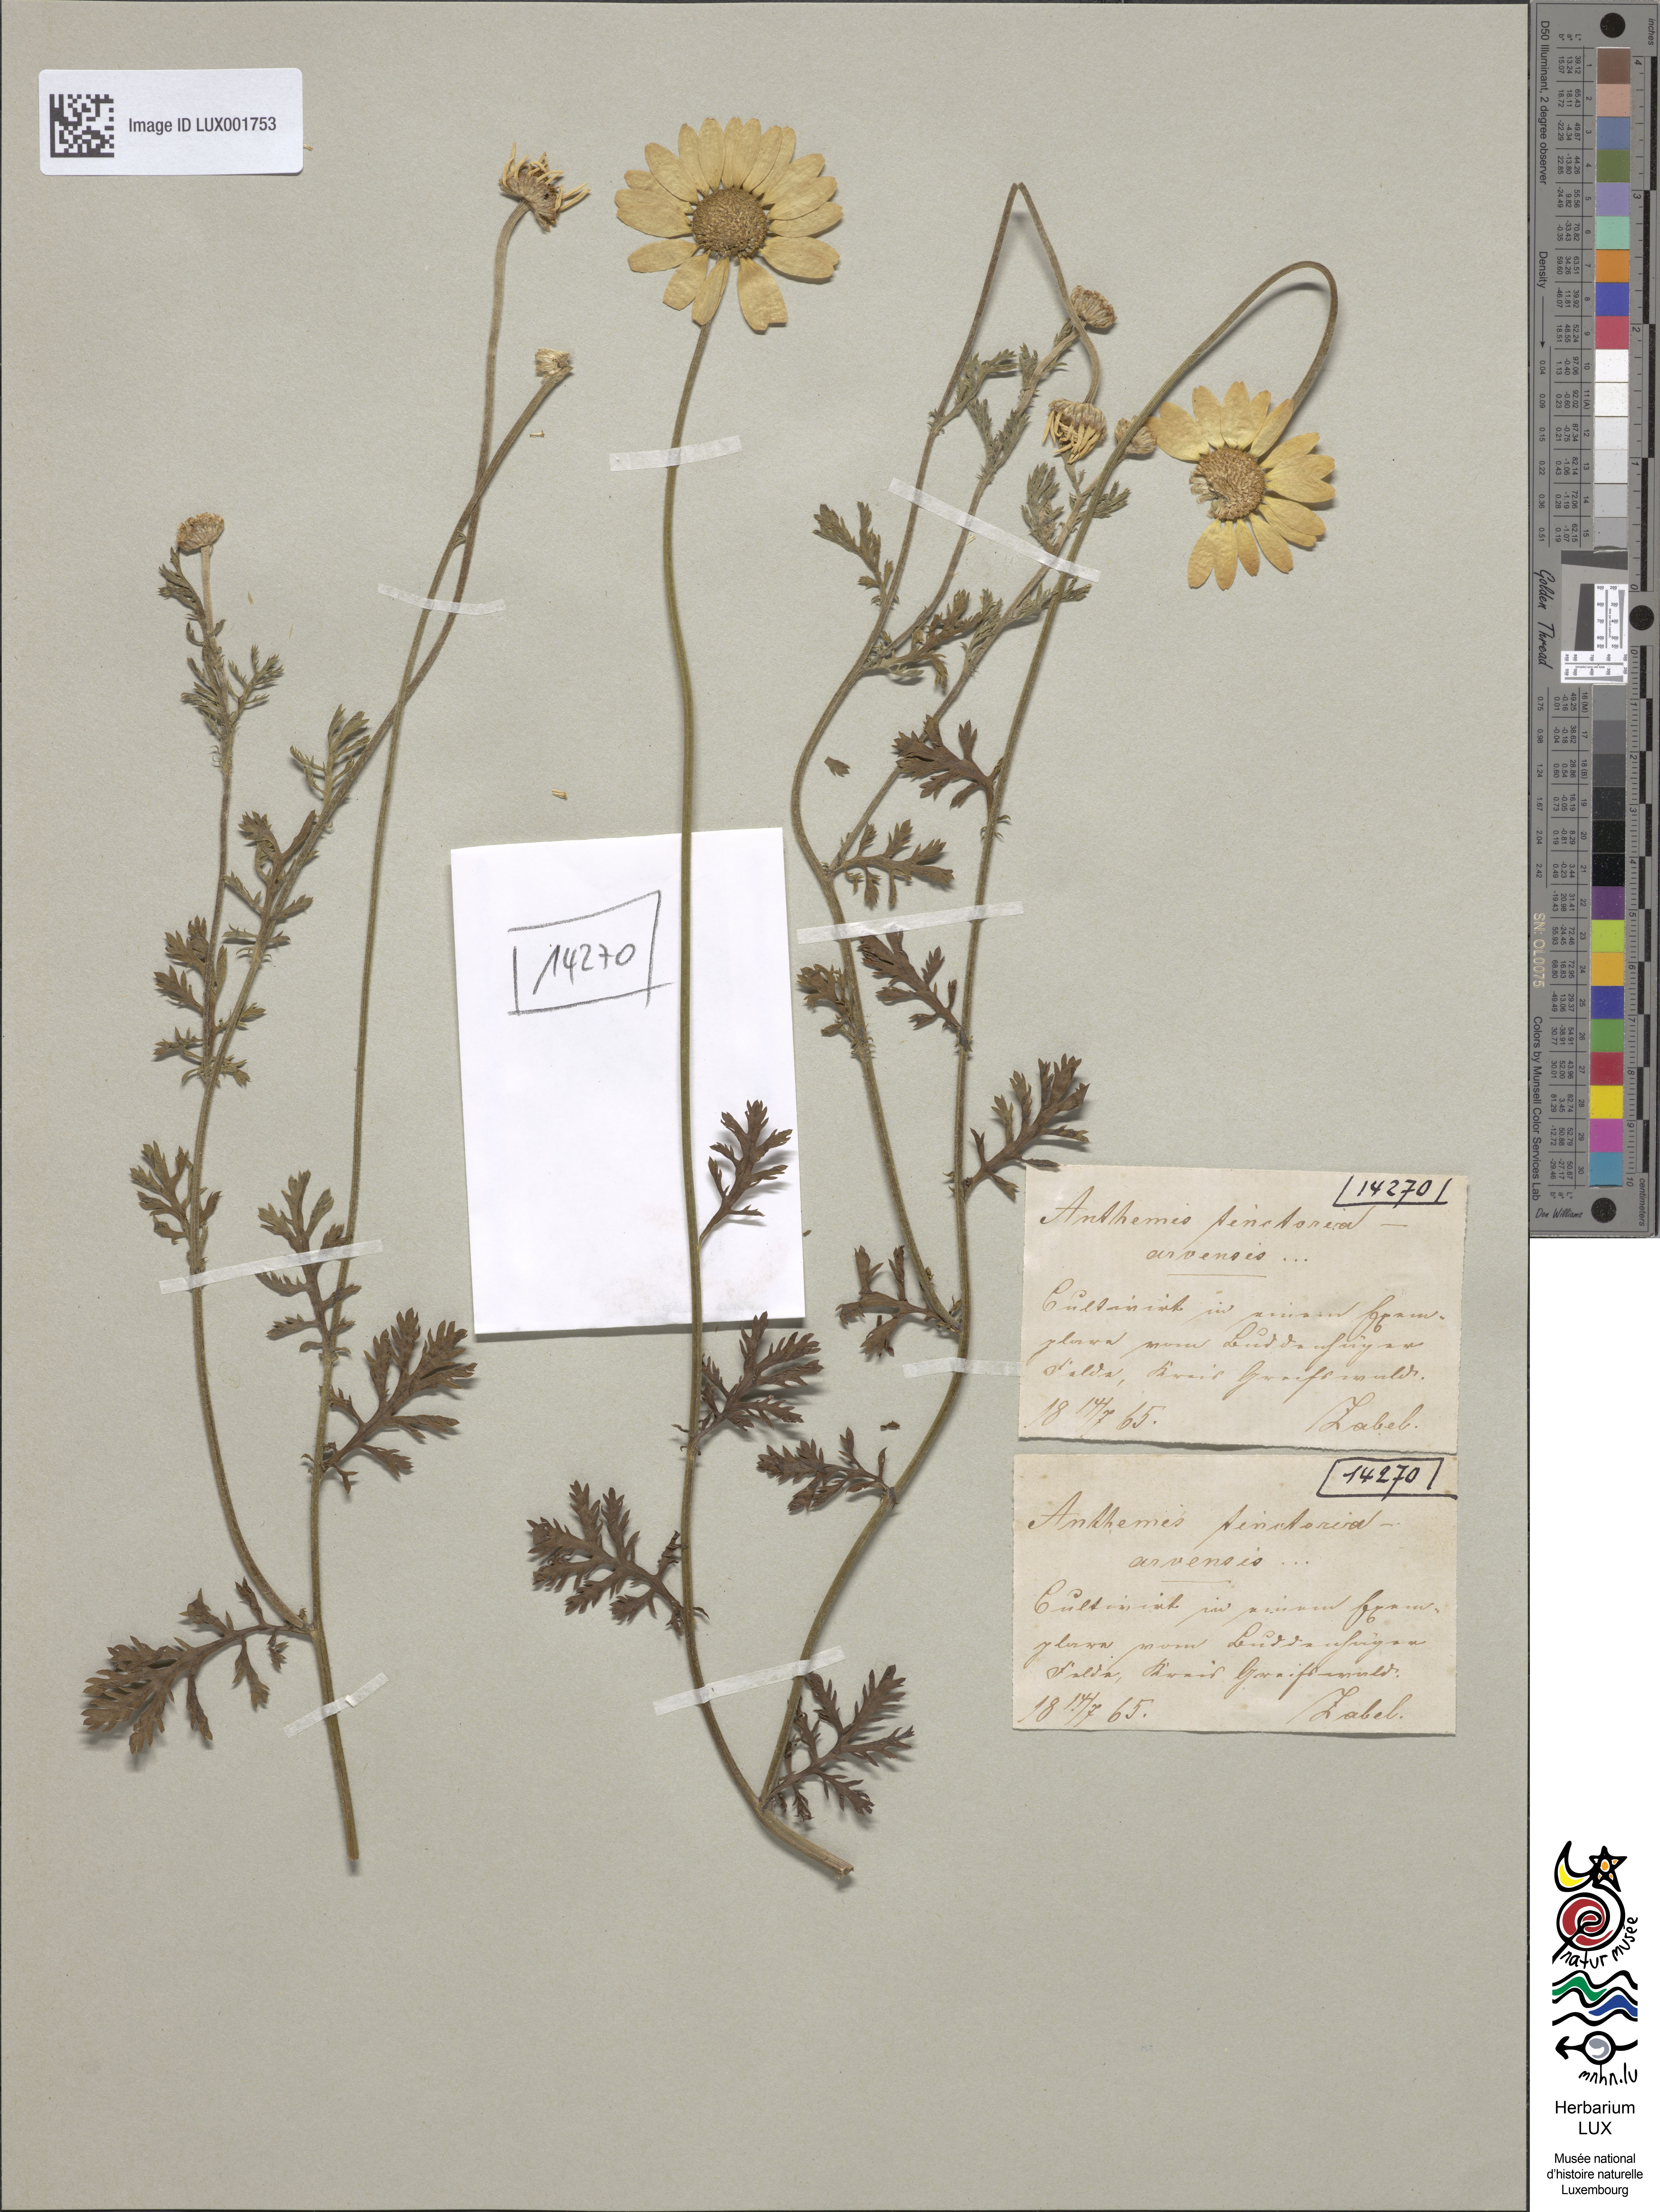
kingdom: Plantae
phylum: Tracheophyta
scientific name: Tracheophyta
